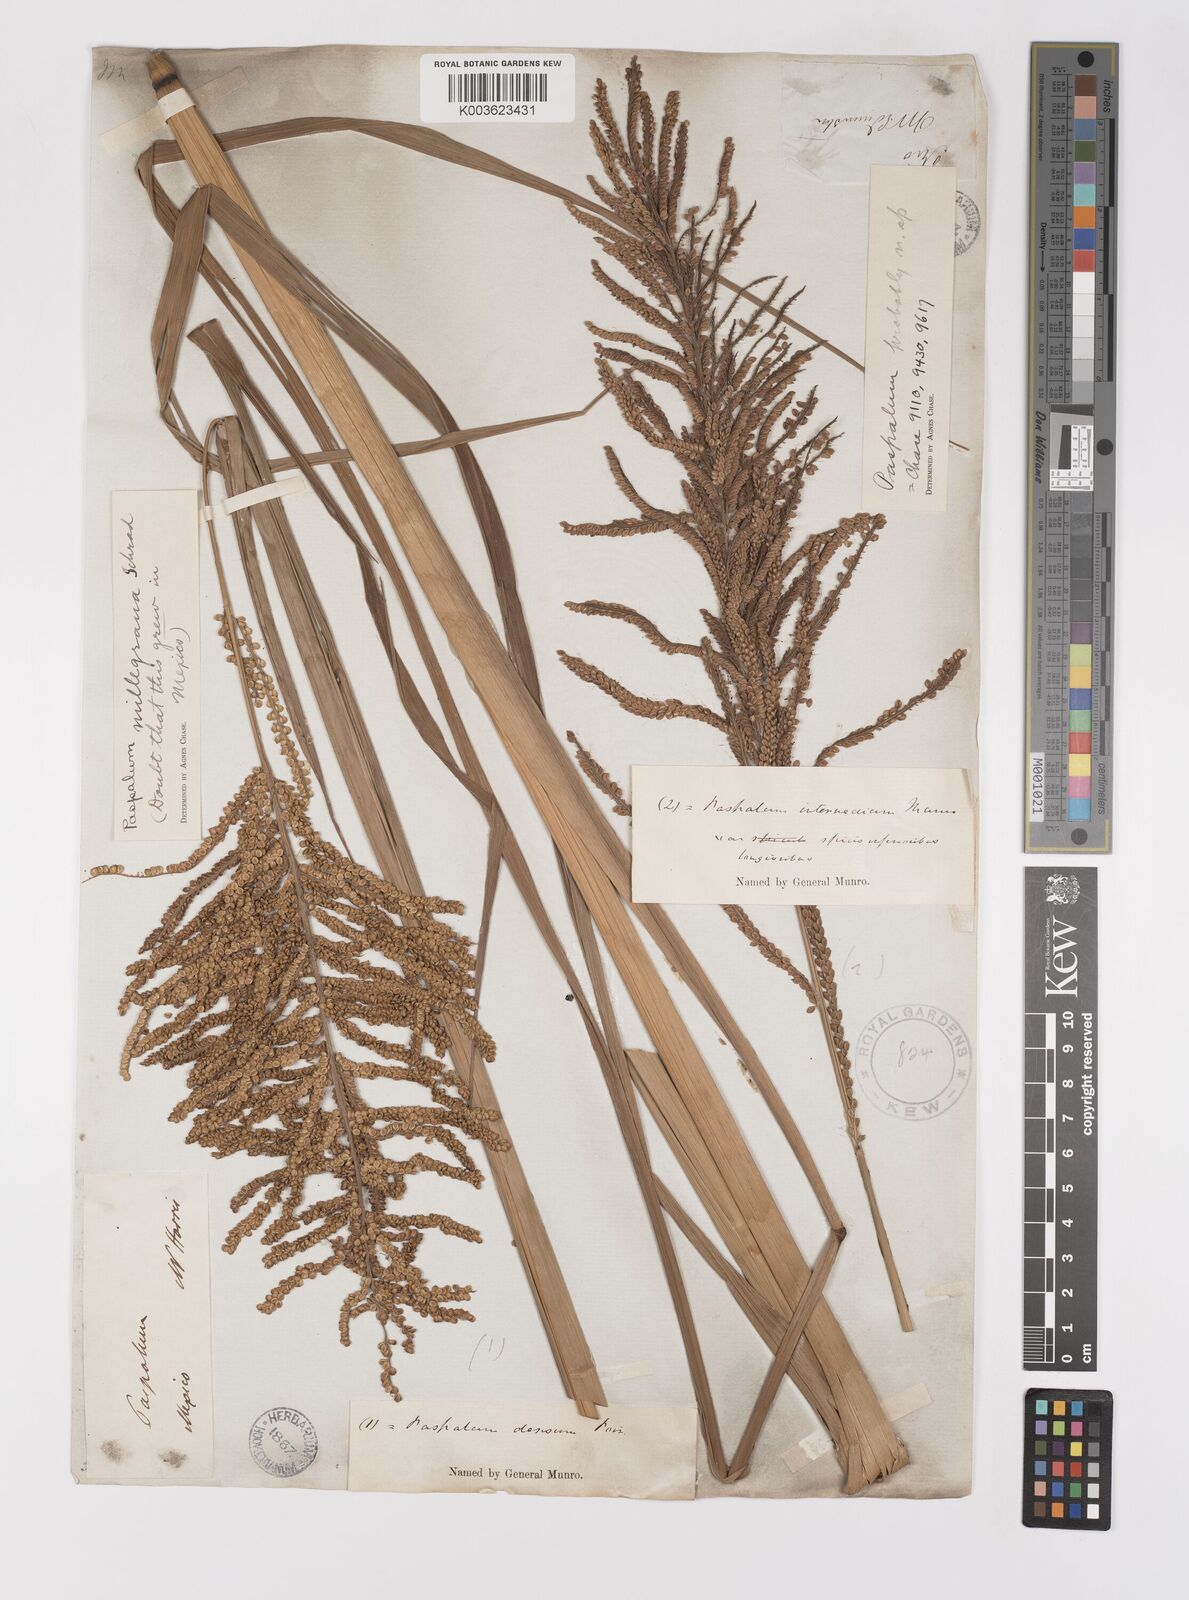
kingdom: Plantae
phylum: Tracheophyta
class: Liliopsida
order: Poales
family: Poaceae
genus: Paspalum
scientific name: Paspalum millegranum
